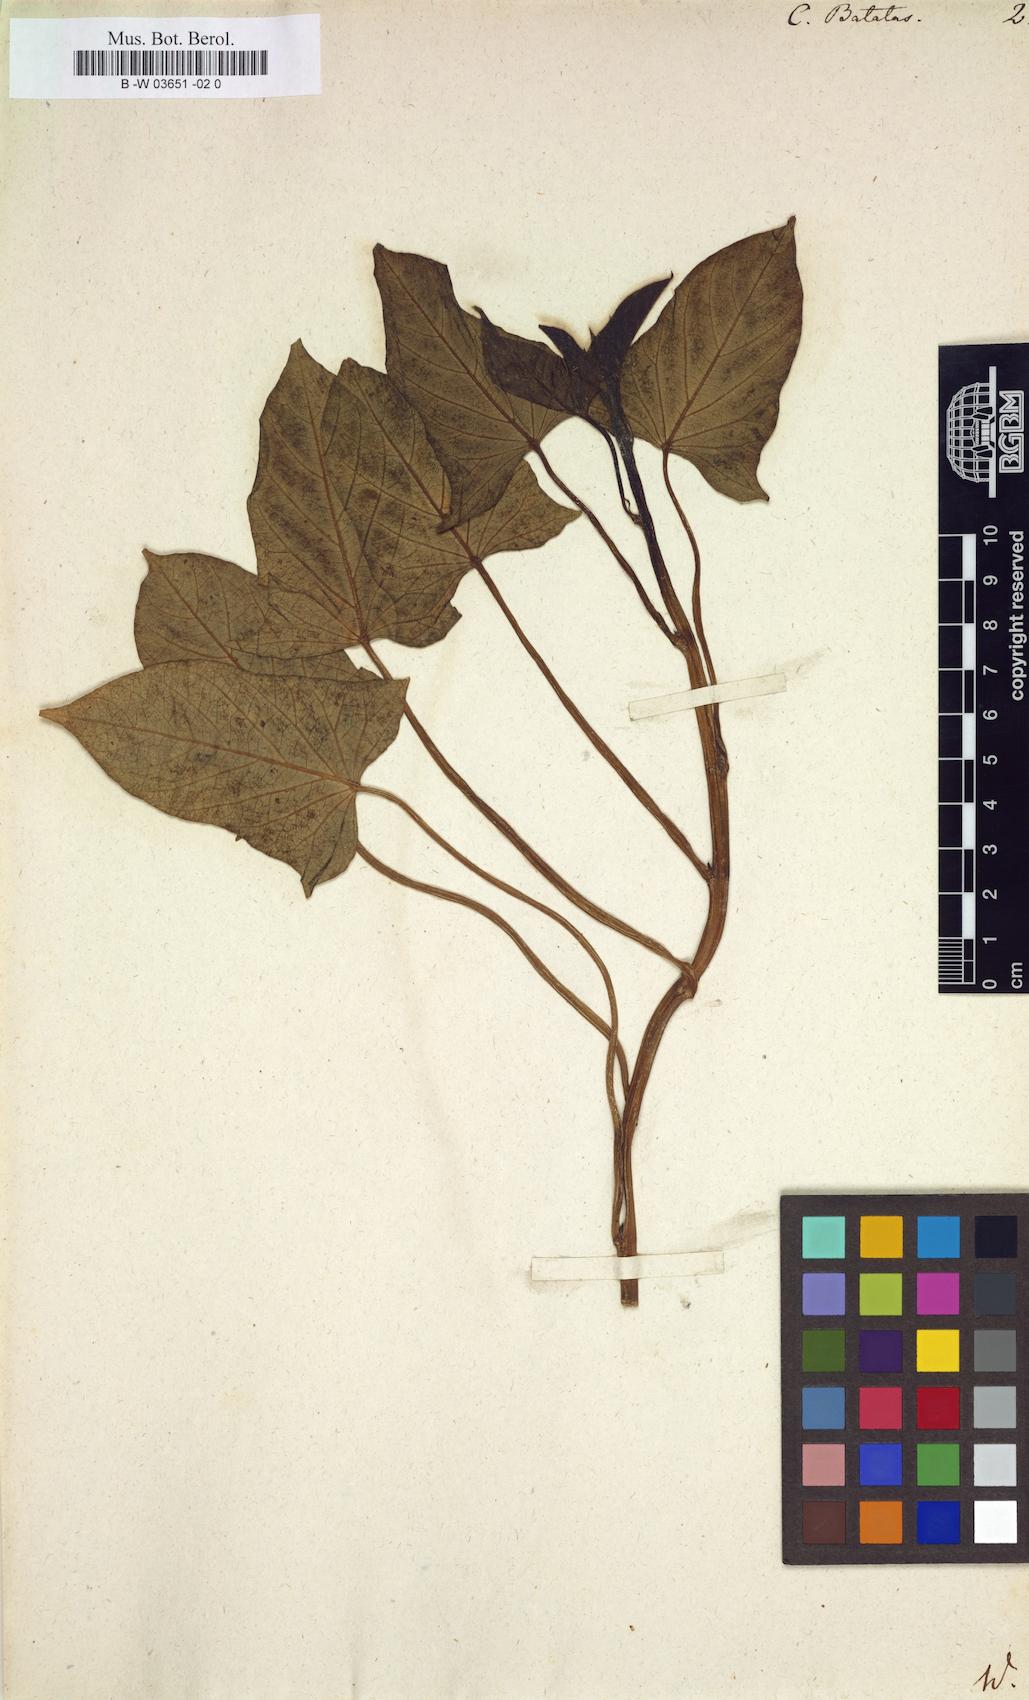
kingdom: Plantae
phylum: Tracheophyta
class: Magnoliopsida
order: Solanales
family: Convolvulaceae
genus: Ipomoea
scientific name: Ipomoea batatas
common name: Sweet-potato
